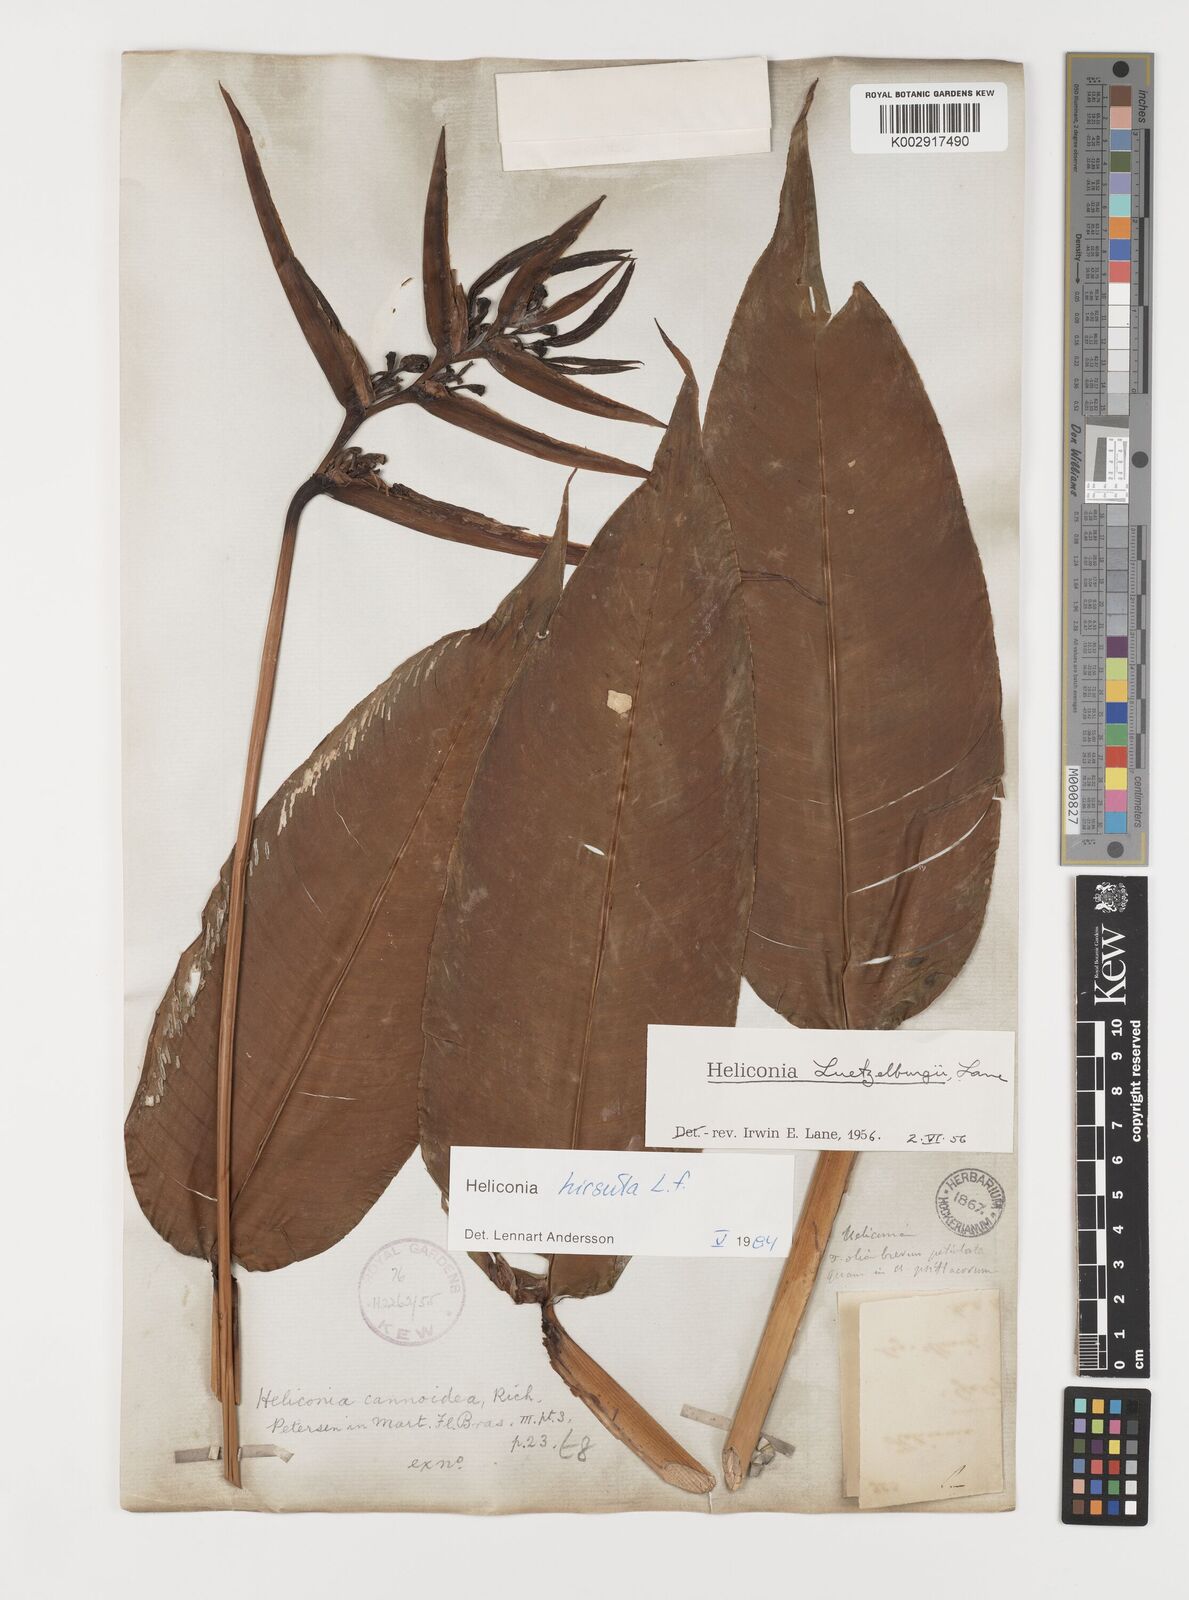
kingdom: Plantae
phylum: Tracheophyta
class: Liliopsida
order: Zingiberales
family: Heliconiaceae
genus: Heliconia
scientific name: Heliconia hirsuta
